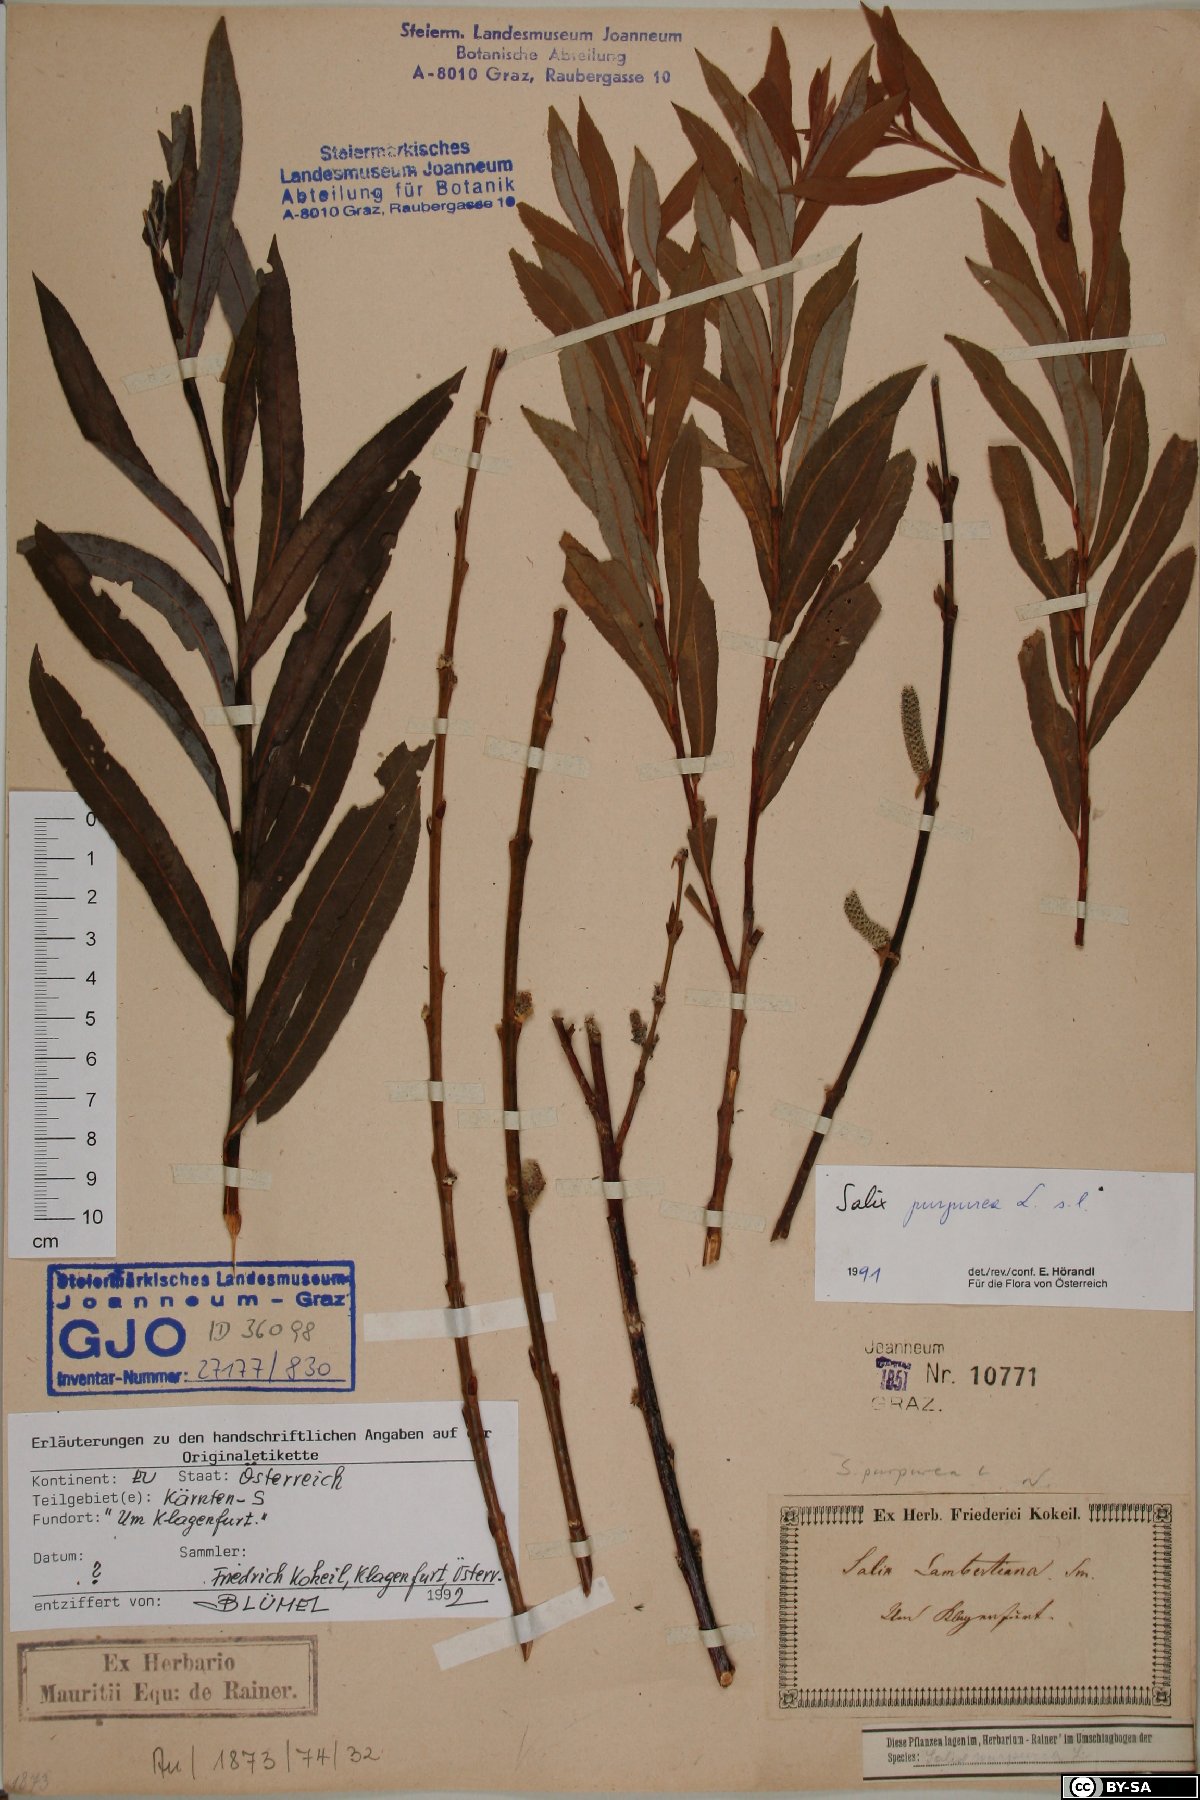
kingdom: Plantae
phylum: Tracheophyta
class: Magnoliopsida
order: Malpighiales
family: Salicaceae
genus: Salix
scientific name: Salix purpurea
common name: Purple willow
